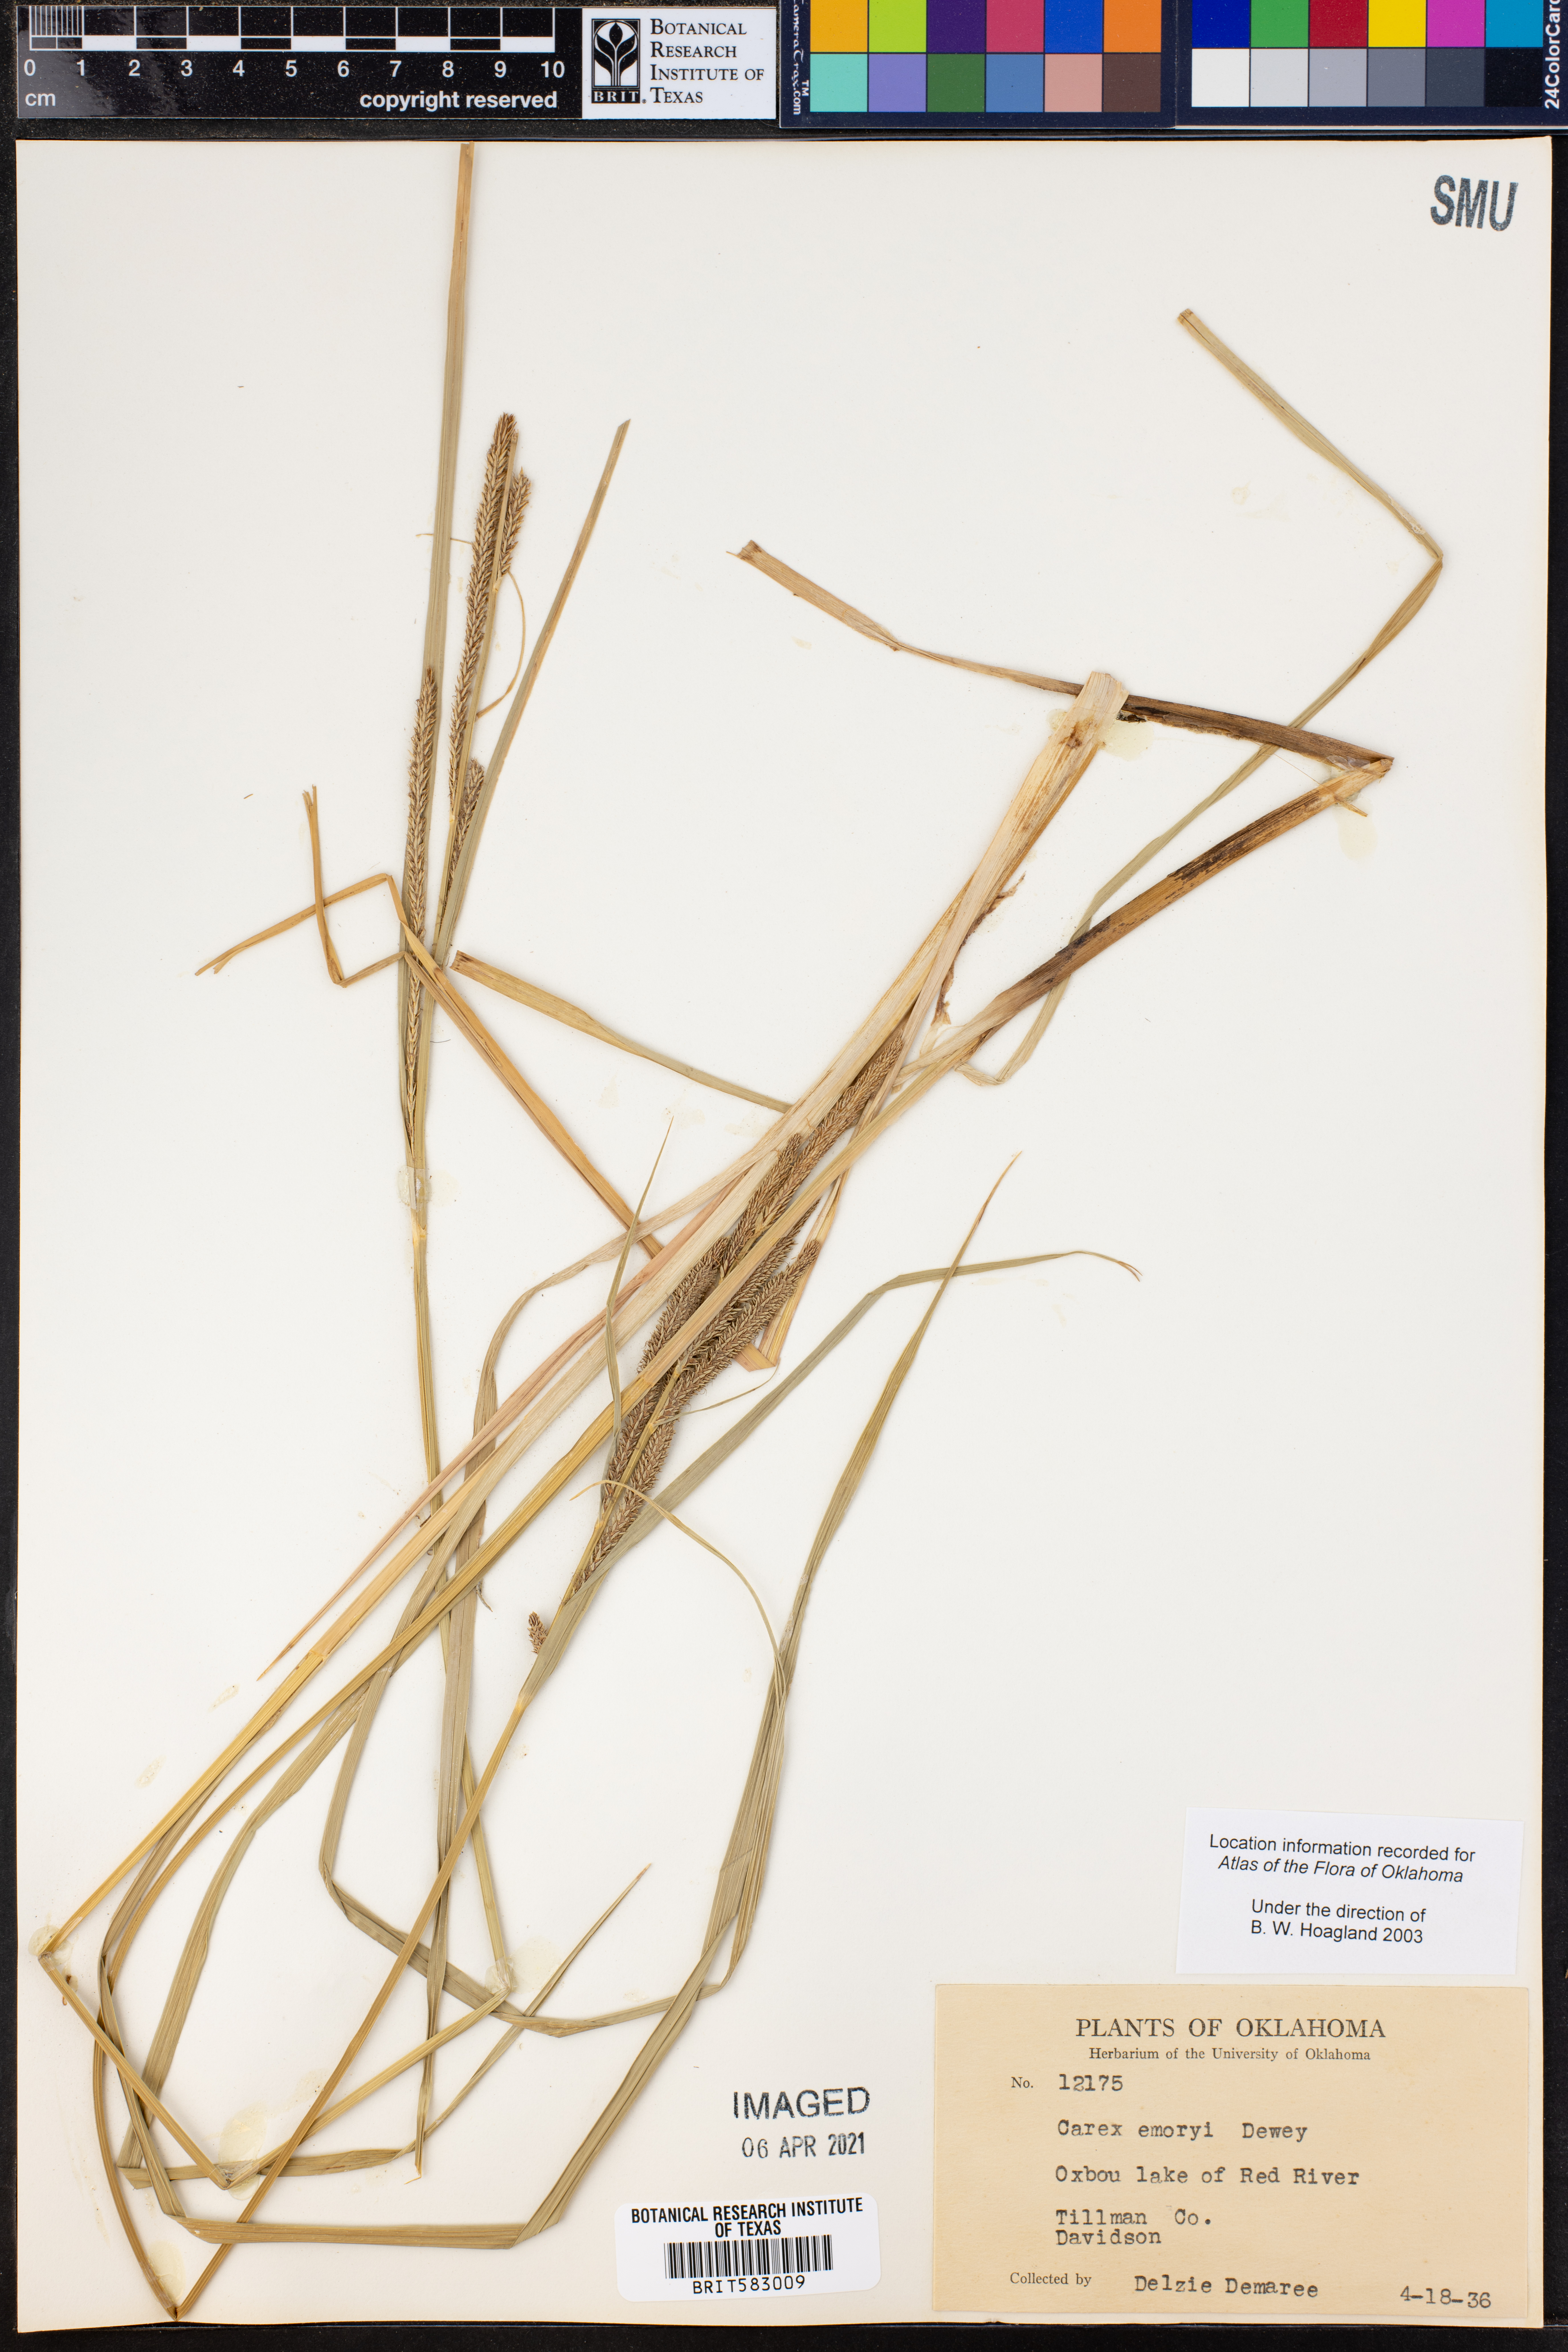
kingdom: Plantae
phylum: Tracheophyta
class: Liliopsida
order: Poales
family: Cyperaceae
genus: Carex
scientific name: Carex emoryi
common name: Emory's sedge
